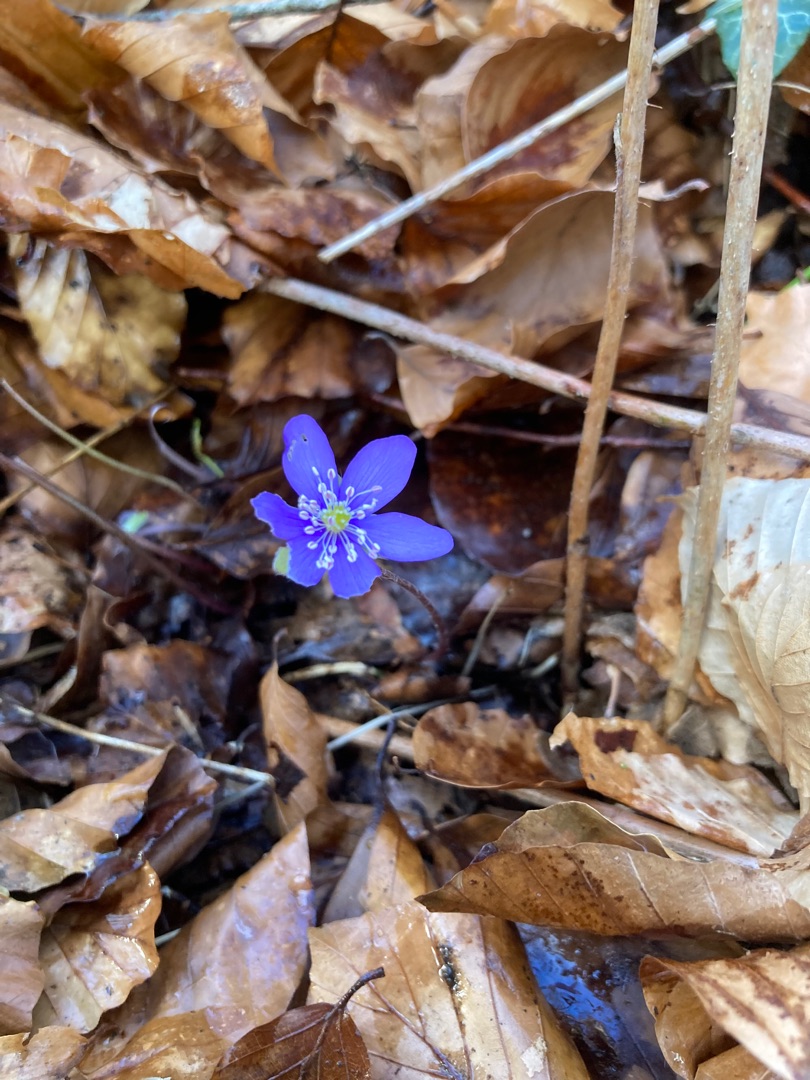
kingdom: Plantae
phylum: Tracheophyta
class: Magnoliopsida
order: Ranunculales
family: Ranunculaceae
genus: Hepatica
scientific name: Hepatica nobilis
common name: Blå anemone
